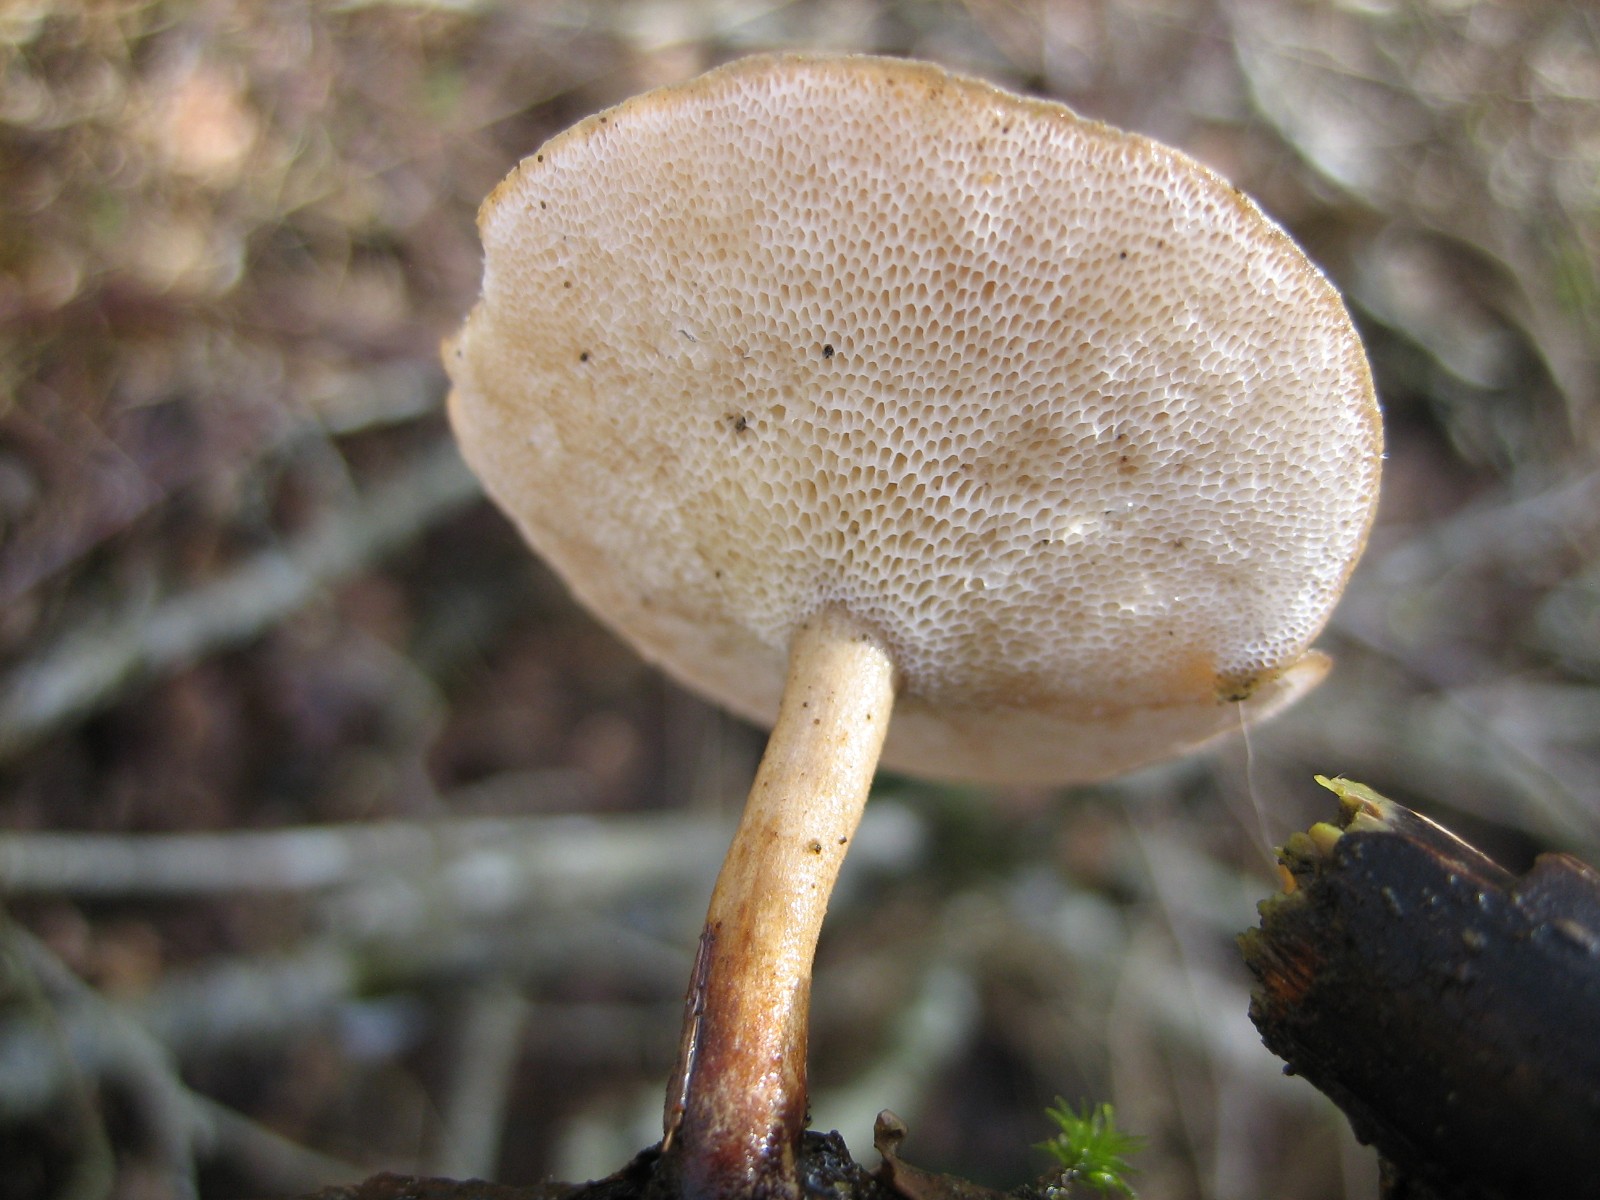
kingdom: Fungi
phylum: Basidiomycota
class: Agaricomycetes
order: Polyporales
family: Polyporaceae
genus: Lentinus
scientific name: Lentinus brumalis
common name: vinter-stilkporesvamp
